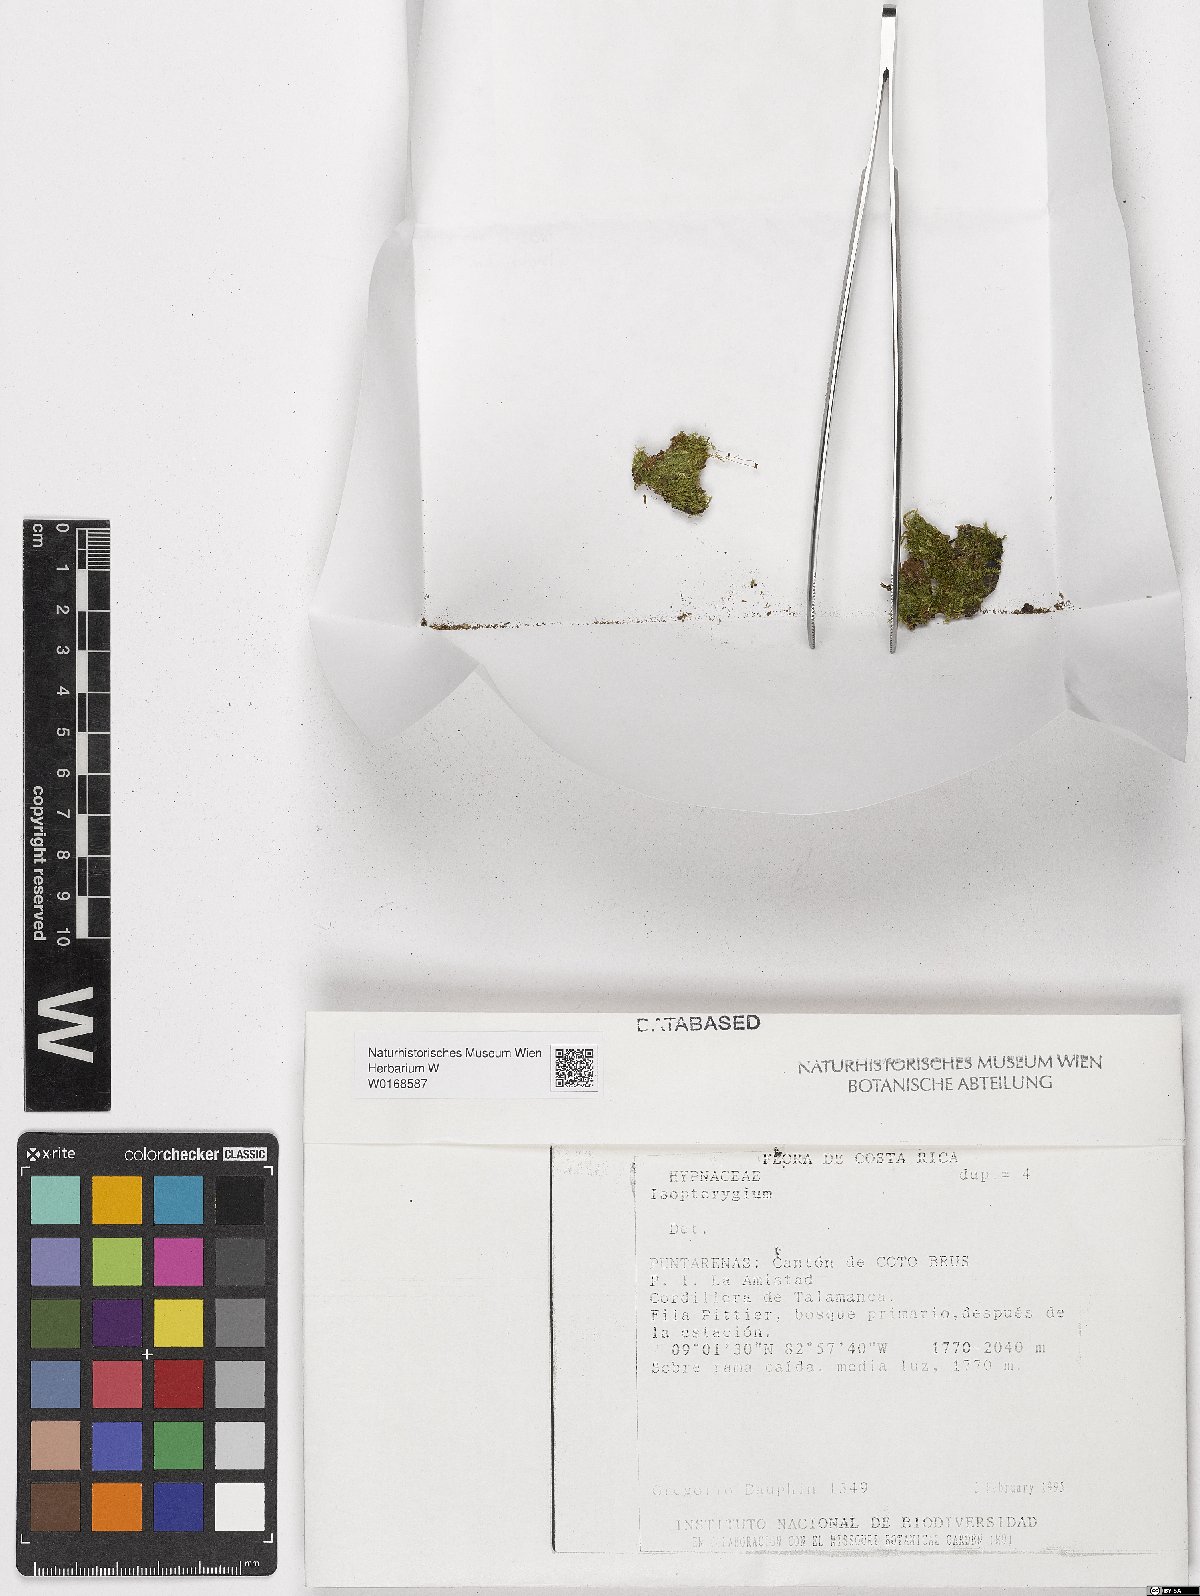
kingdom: Plantae
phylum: Bryophyta
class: Bryopsida
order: Hypnales
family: Pylaisiadelphaceae
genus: Isopterygium
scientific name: Isopterygium
